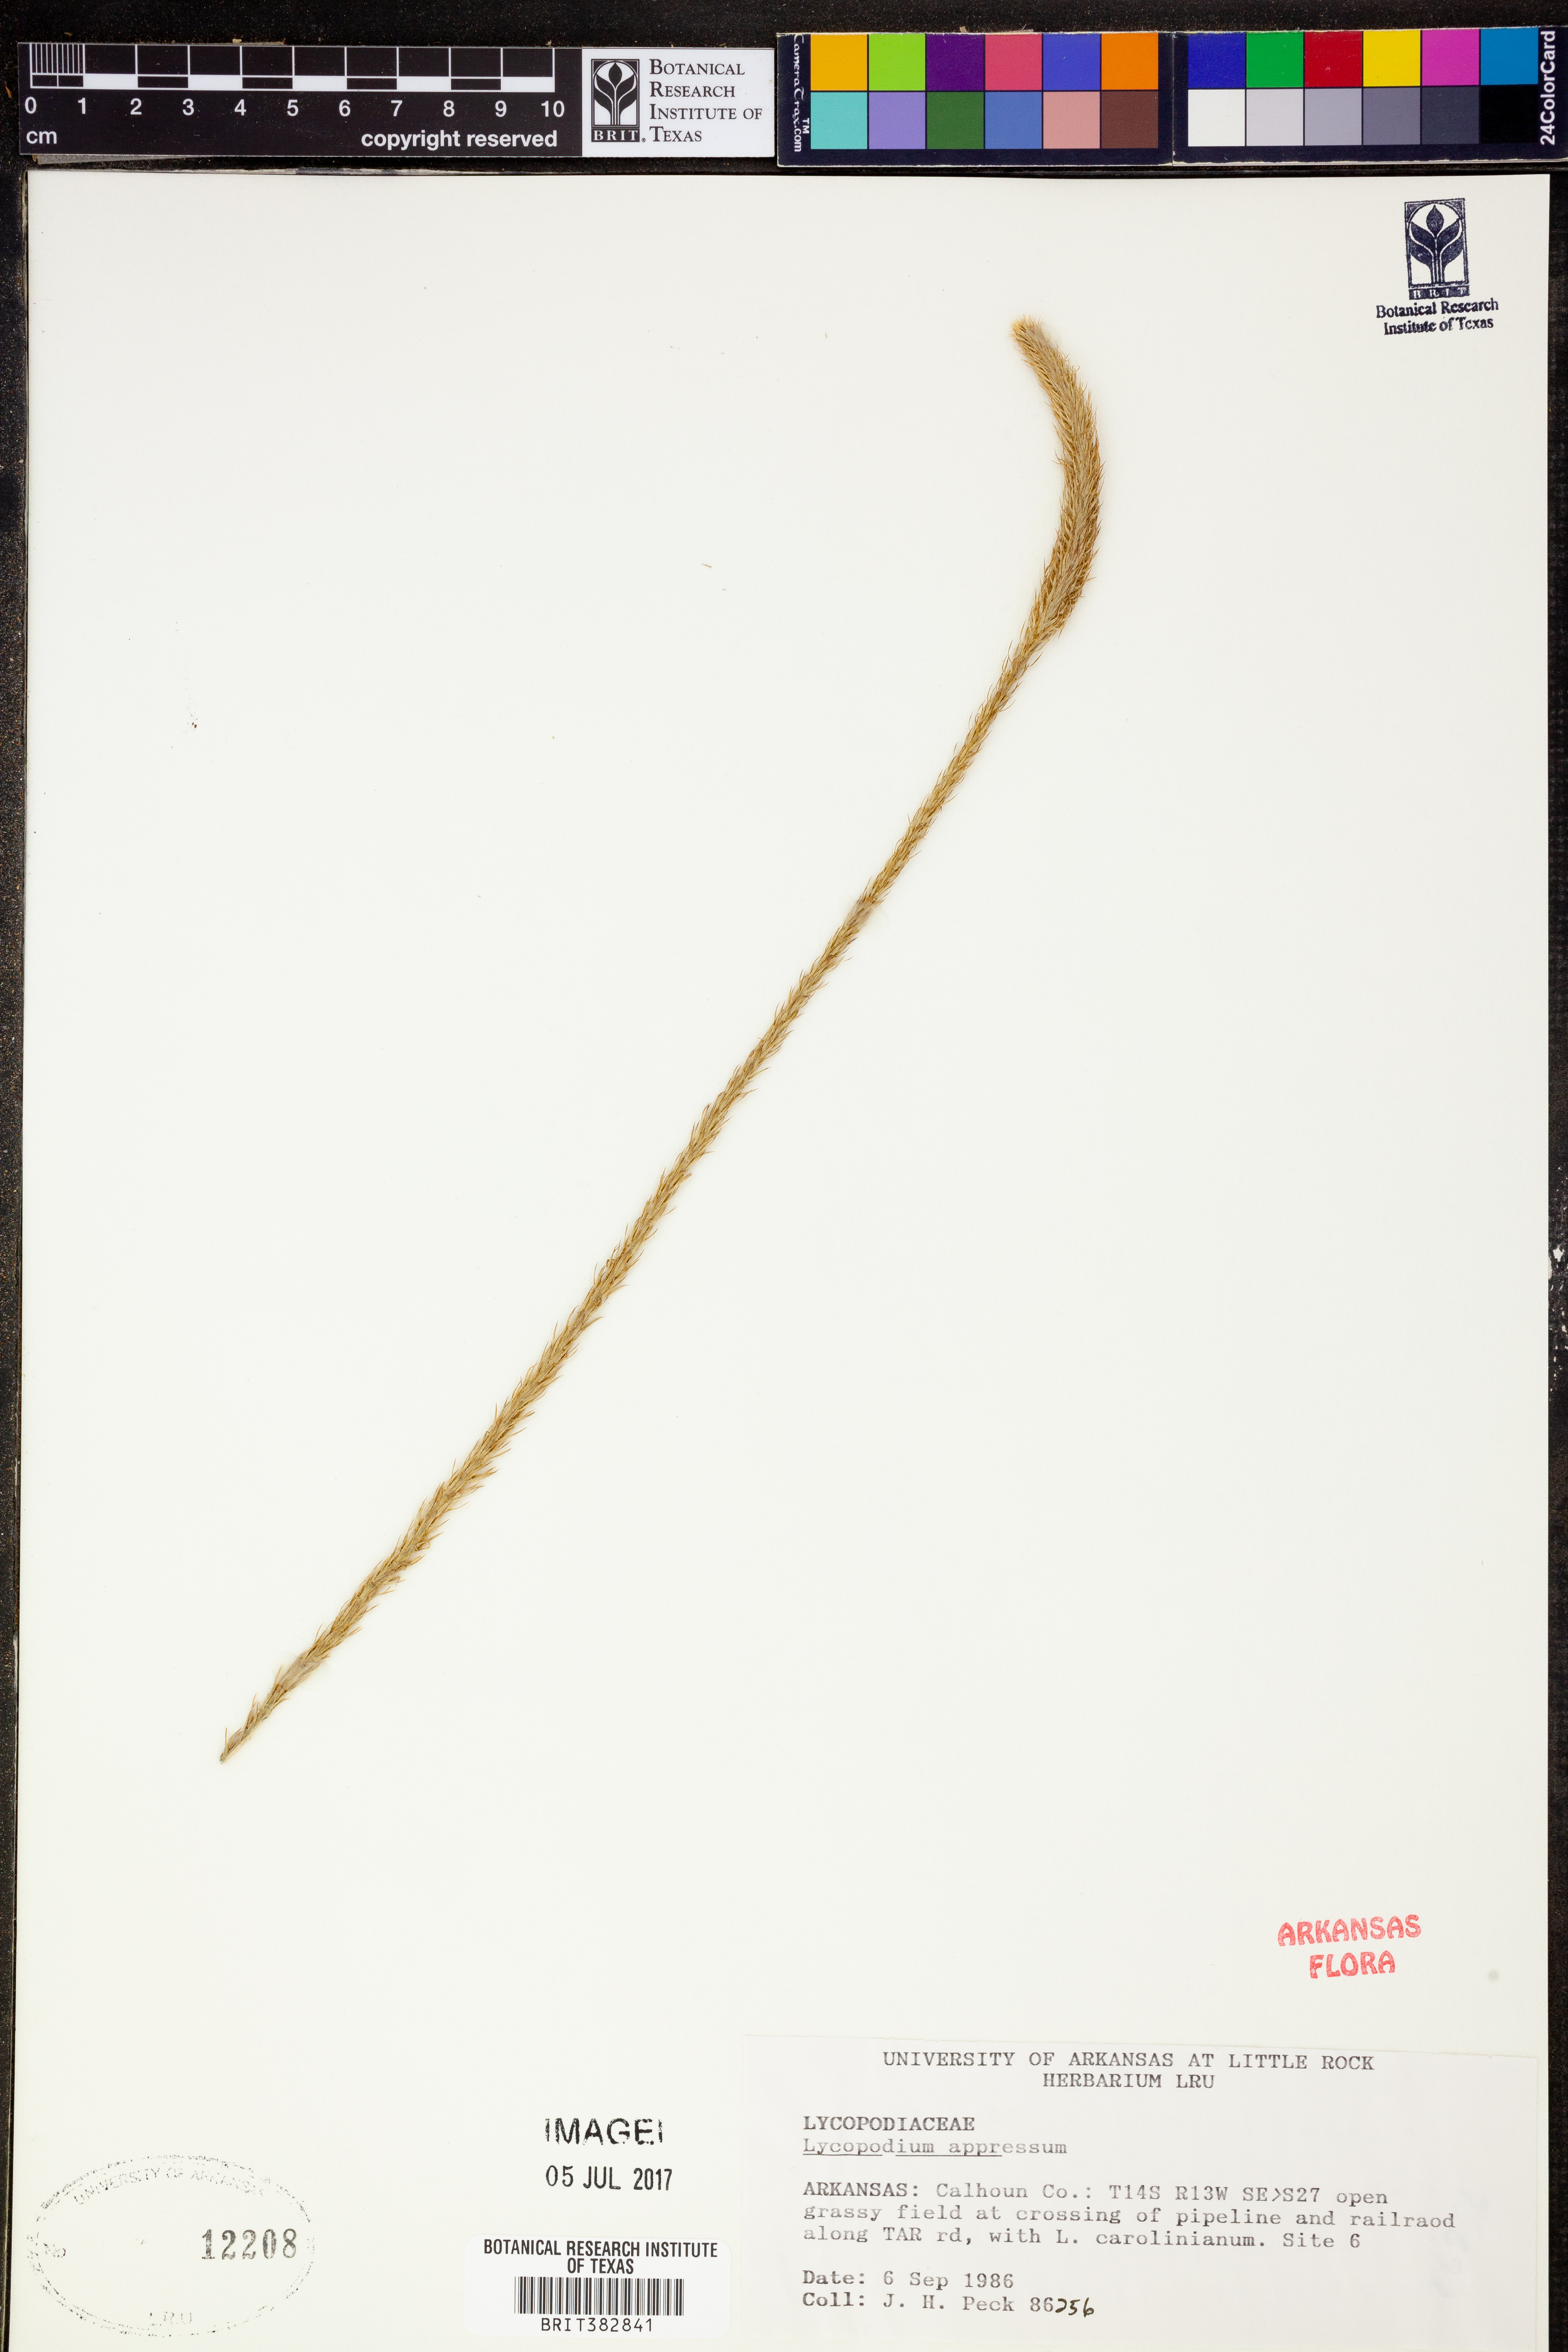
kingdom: Plantae
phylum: Tracheophyta
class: Lycopodiopsida
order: Lycopodiales
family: Lycopodiaceae
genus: Lycopodiella
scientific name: Lycopodiella appressa
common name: Appressed bog clubmoss
